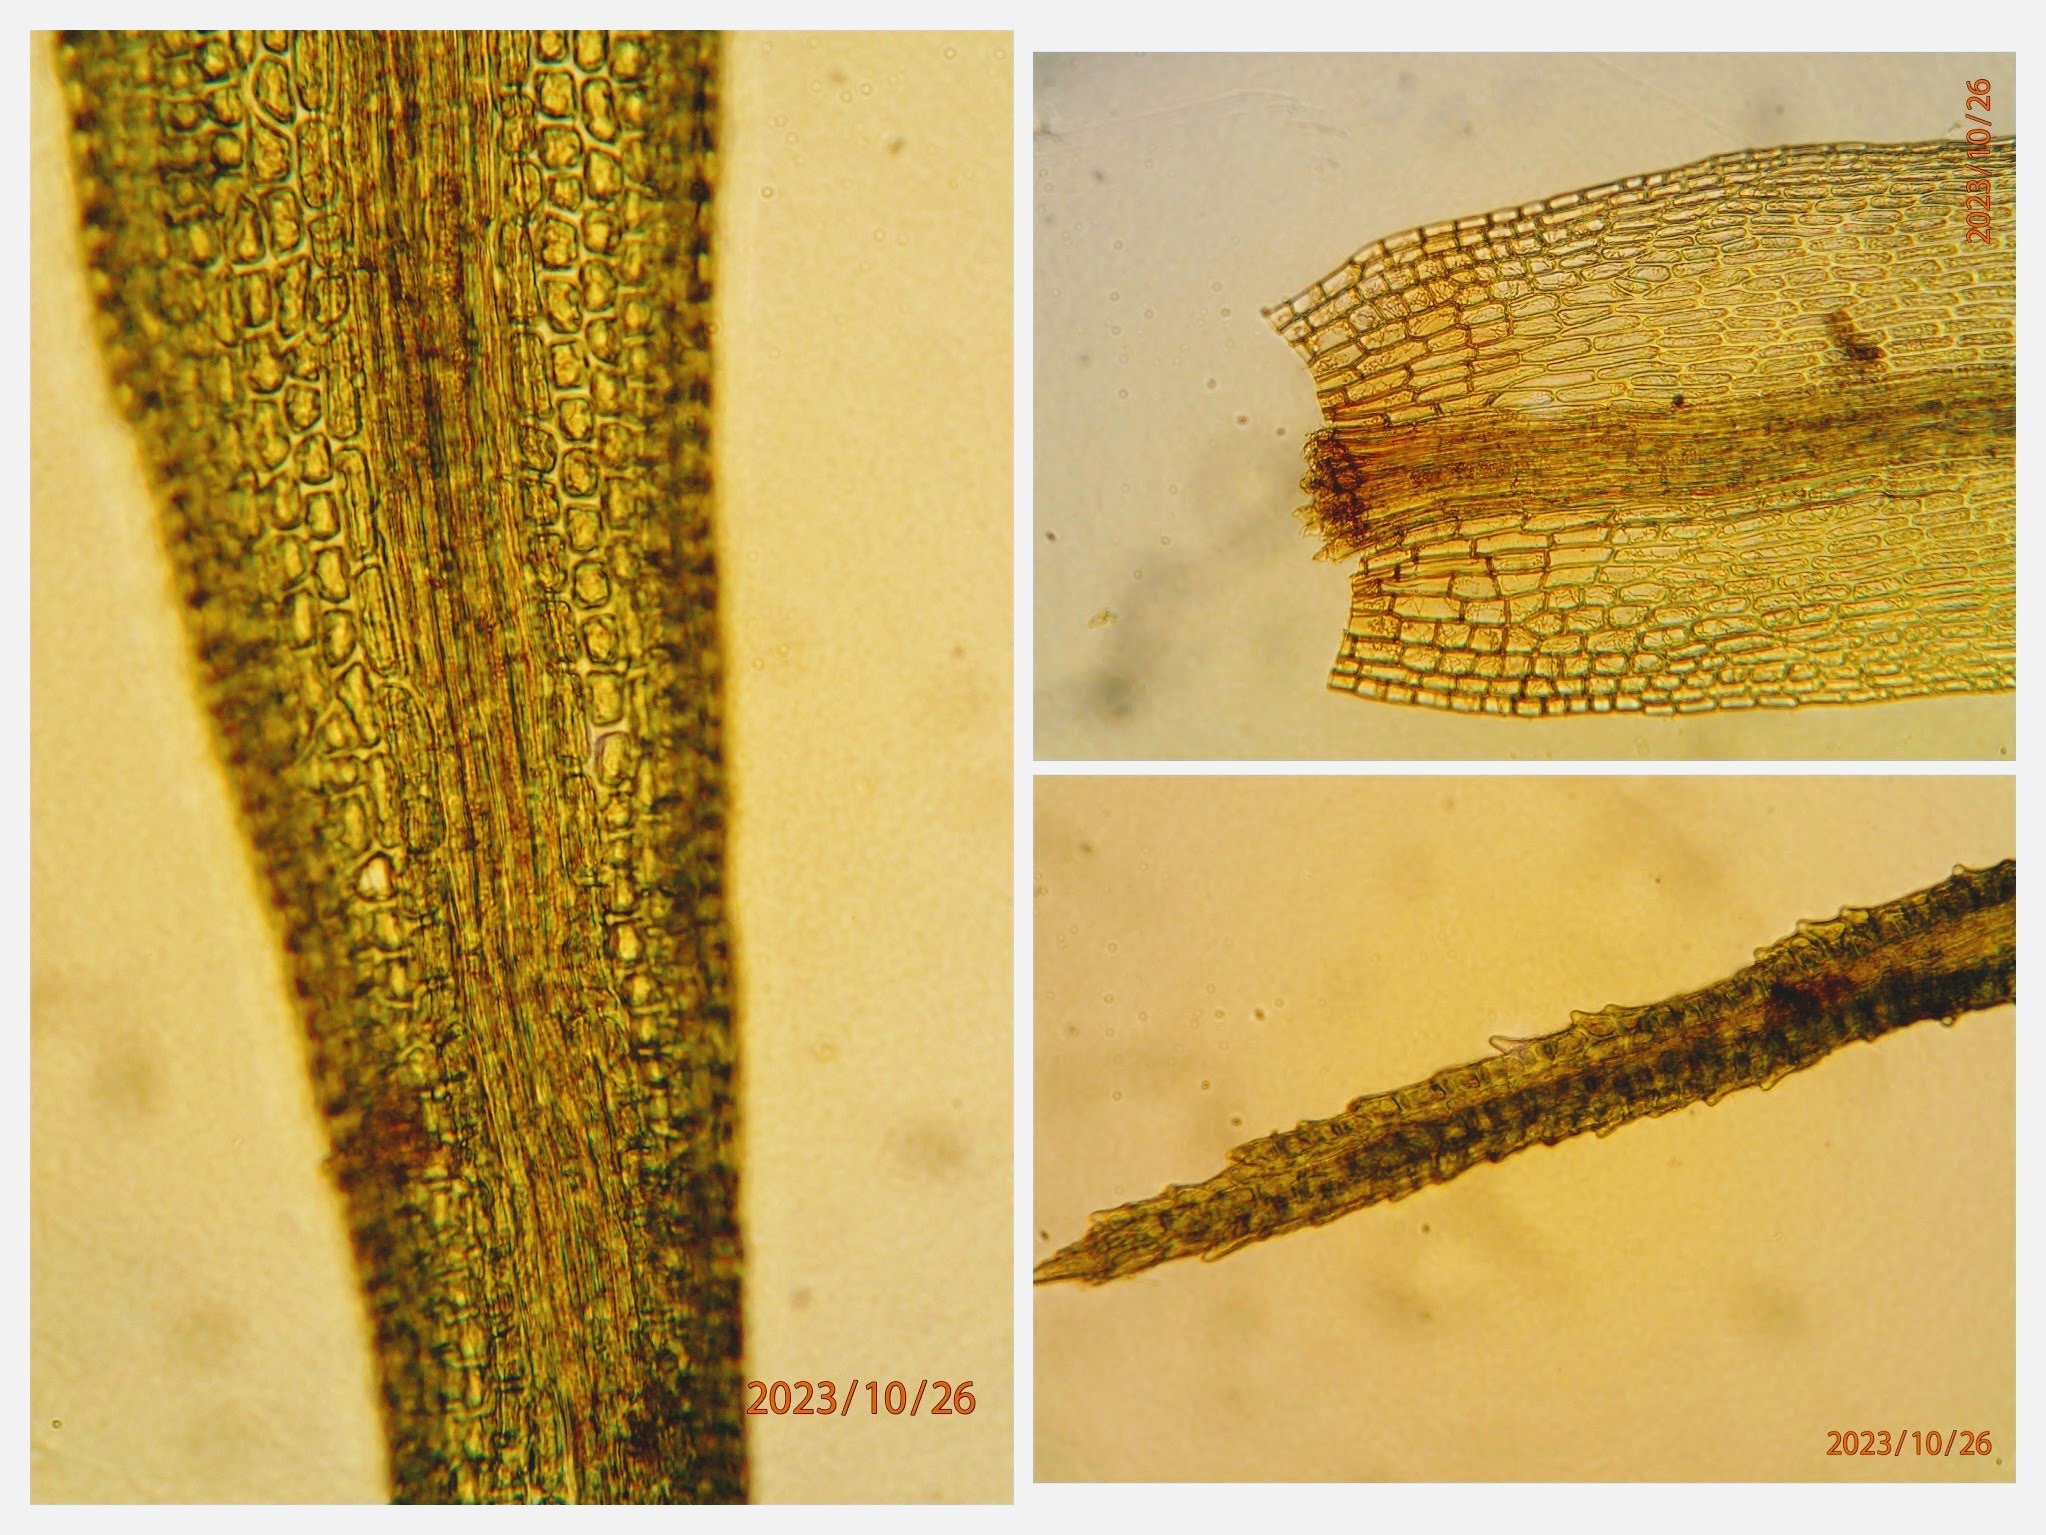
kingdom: Plantae
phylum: Bryophyta
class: Bryopsida
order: Dicranales
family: Dicranaceae
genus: Orthodicranum
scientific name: Orthodicranum montanum
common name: Tæt tyndvinge
